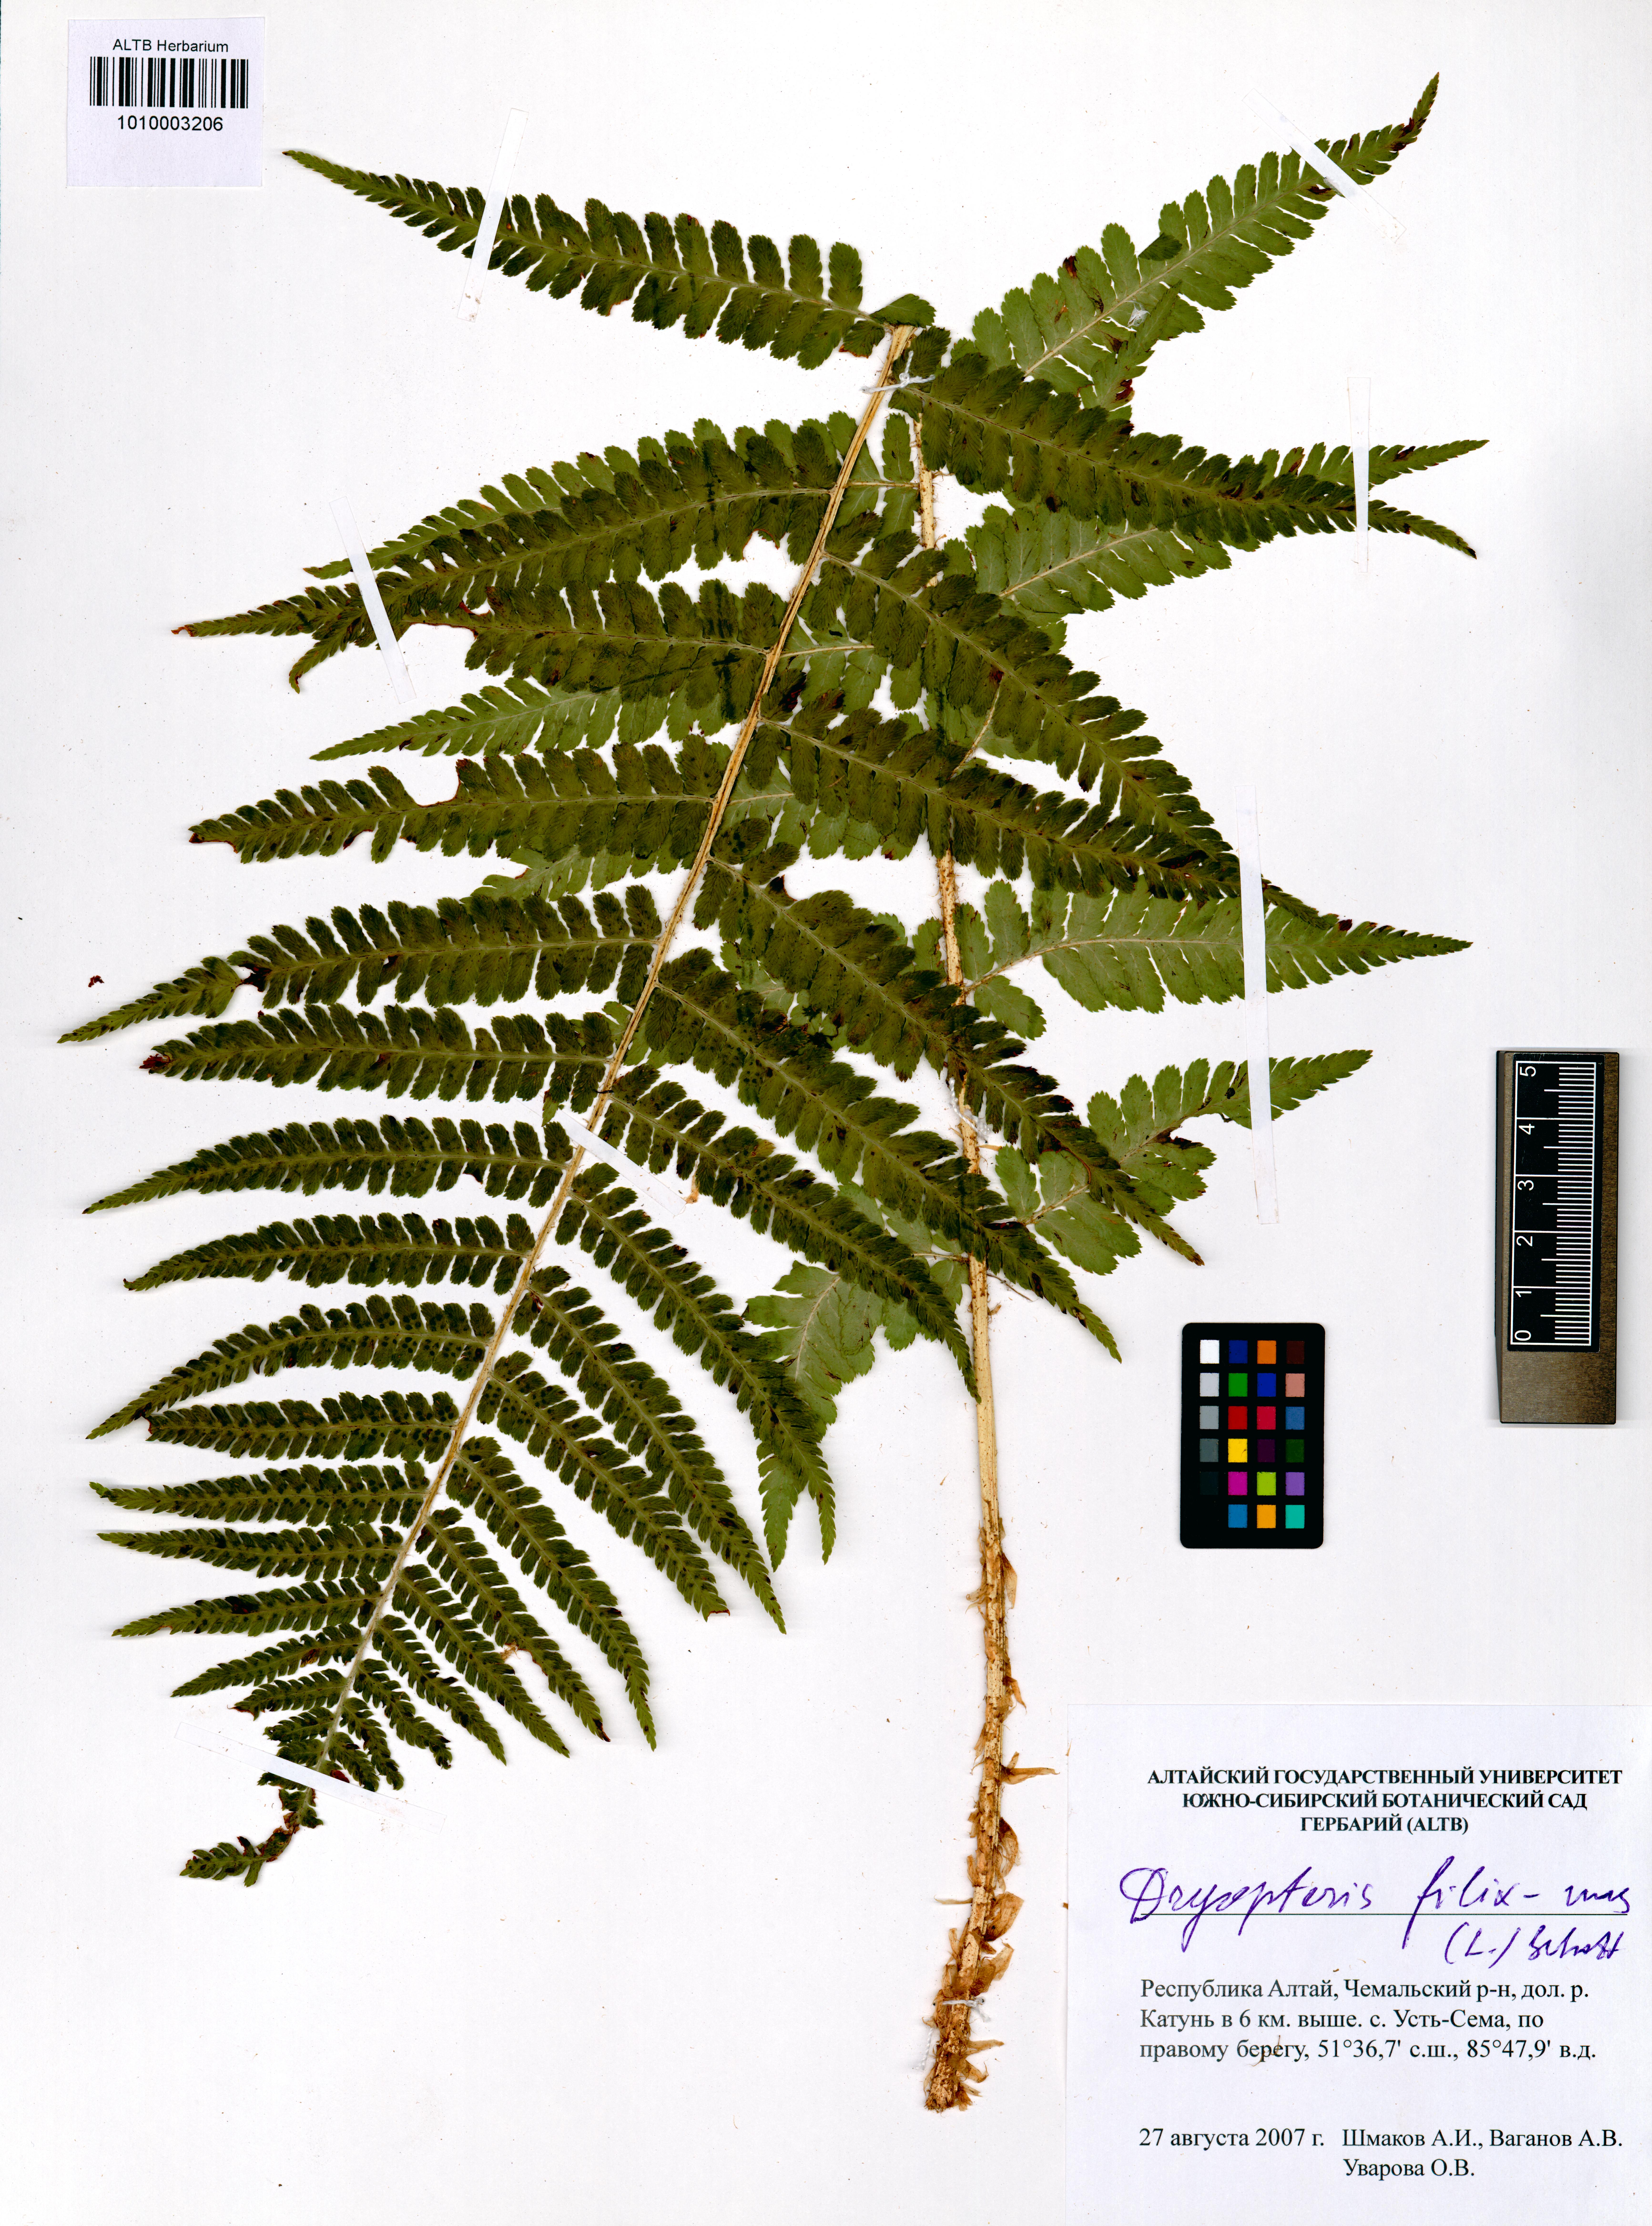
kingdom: Plantae
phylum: Tracheophyta
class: Polypodiopsida
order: Polypodiales
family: Dryopteridaceae
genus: Dryopteris
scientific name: Dryopteris filix-mas
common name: Male fern
